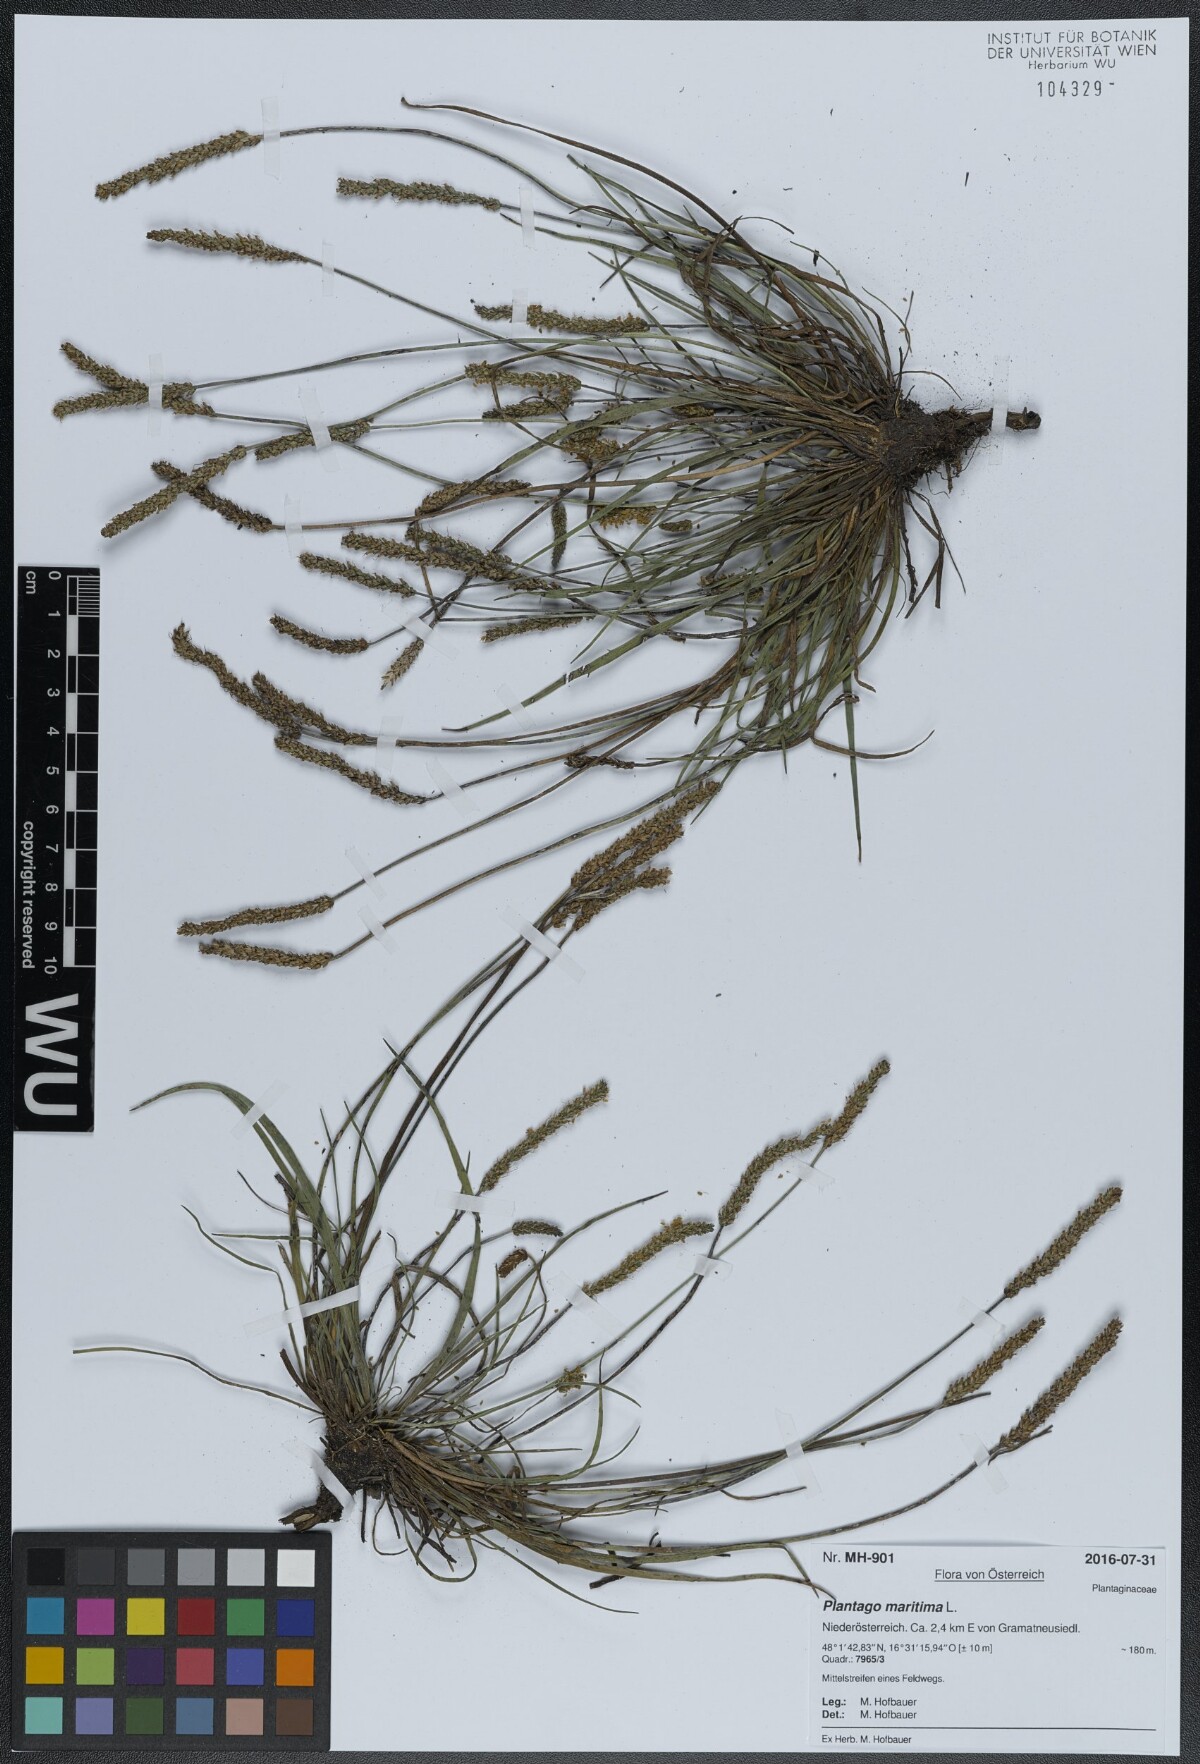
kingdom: Plantae
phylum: Tracheophyta
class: Magnoliopsida
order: Lamiales
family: Plantaginaceae
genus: Plantago
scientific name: Plantago maritima
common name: Sea plantain
